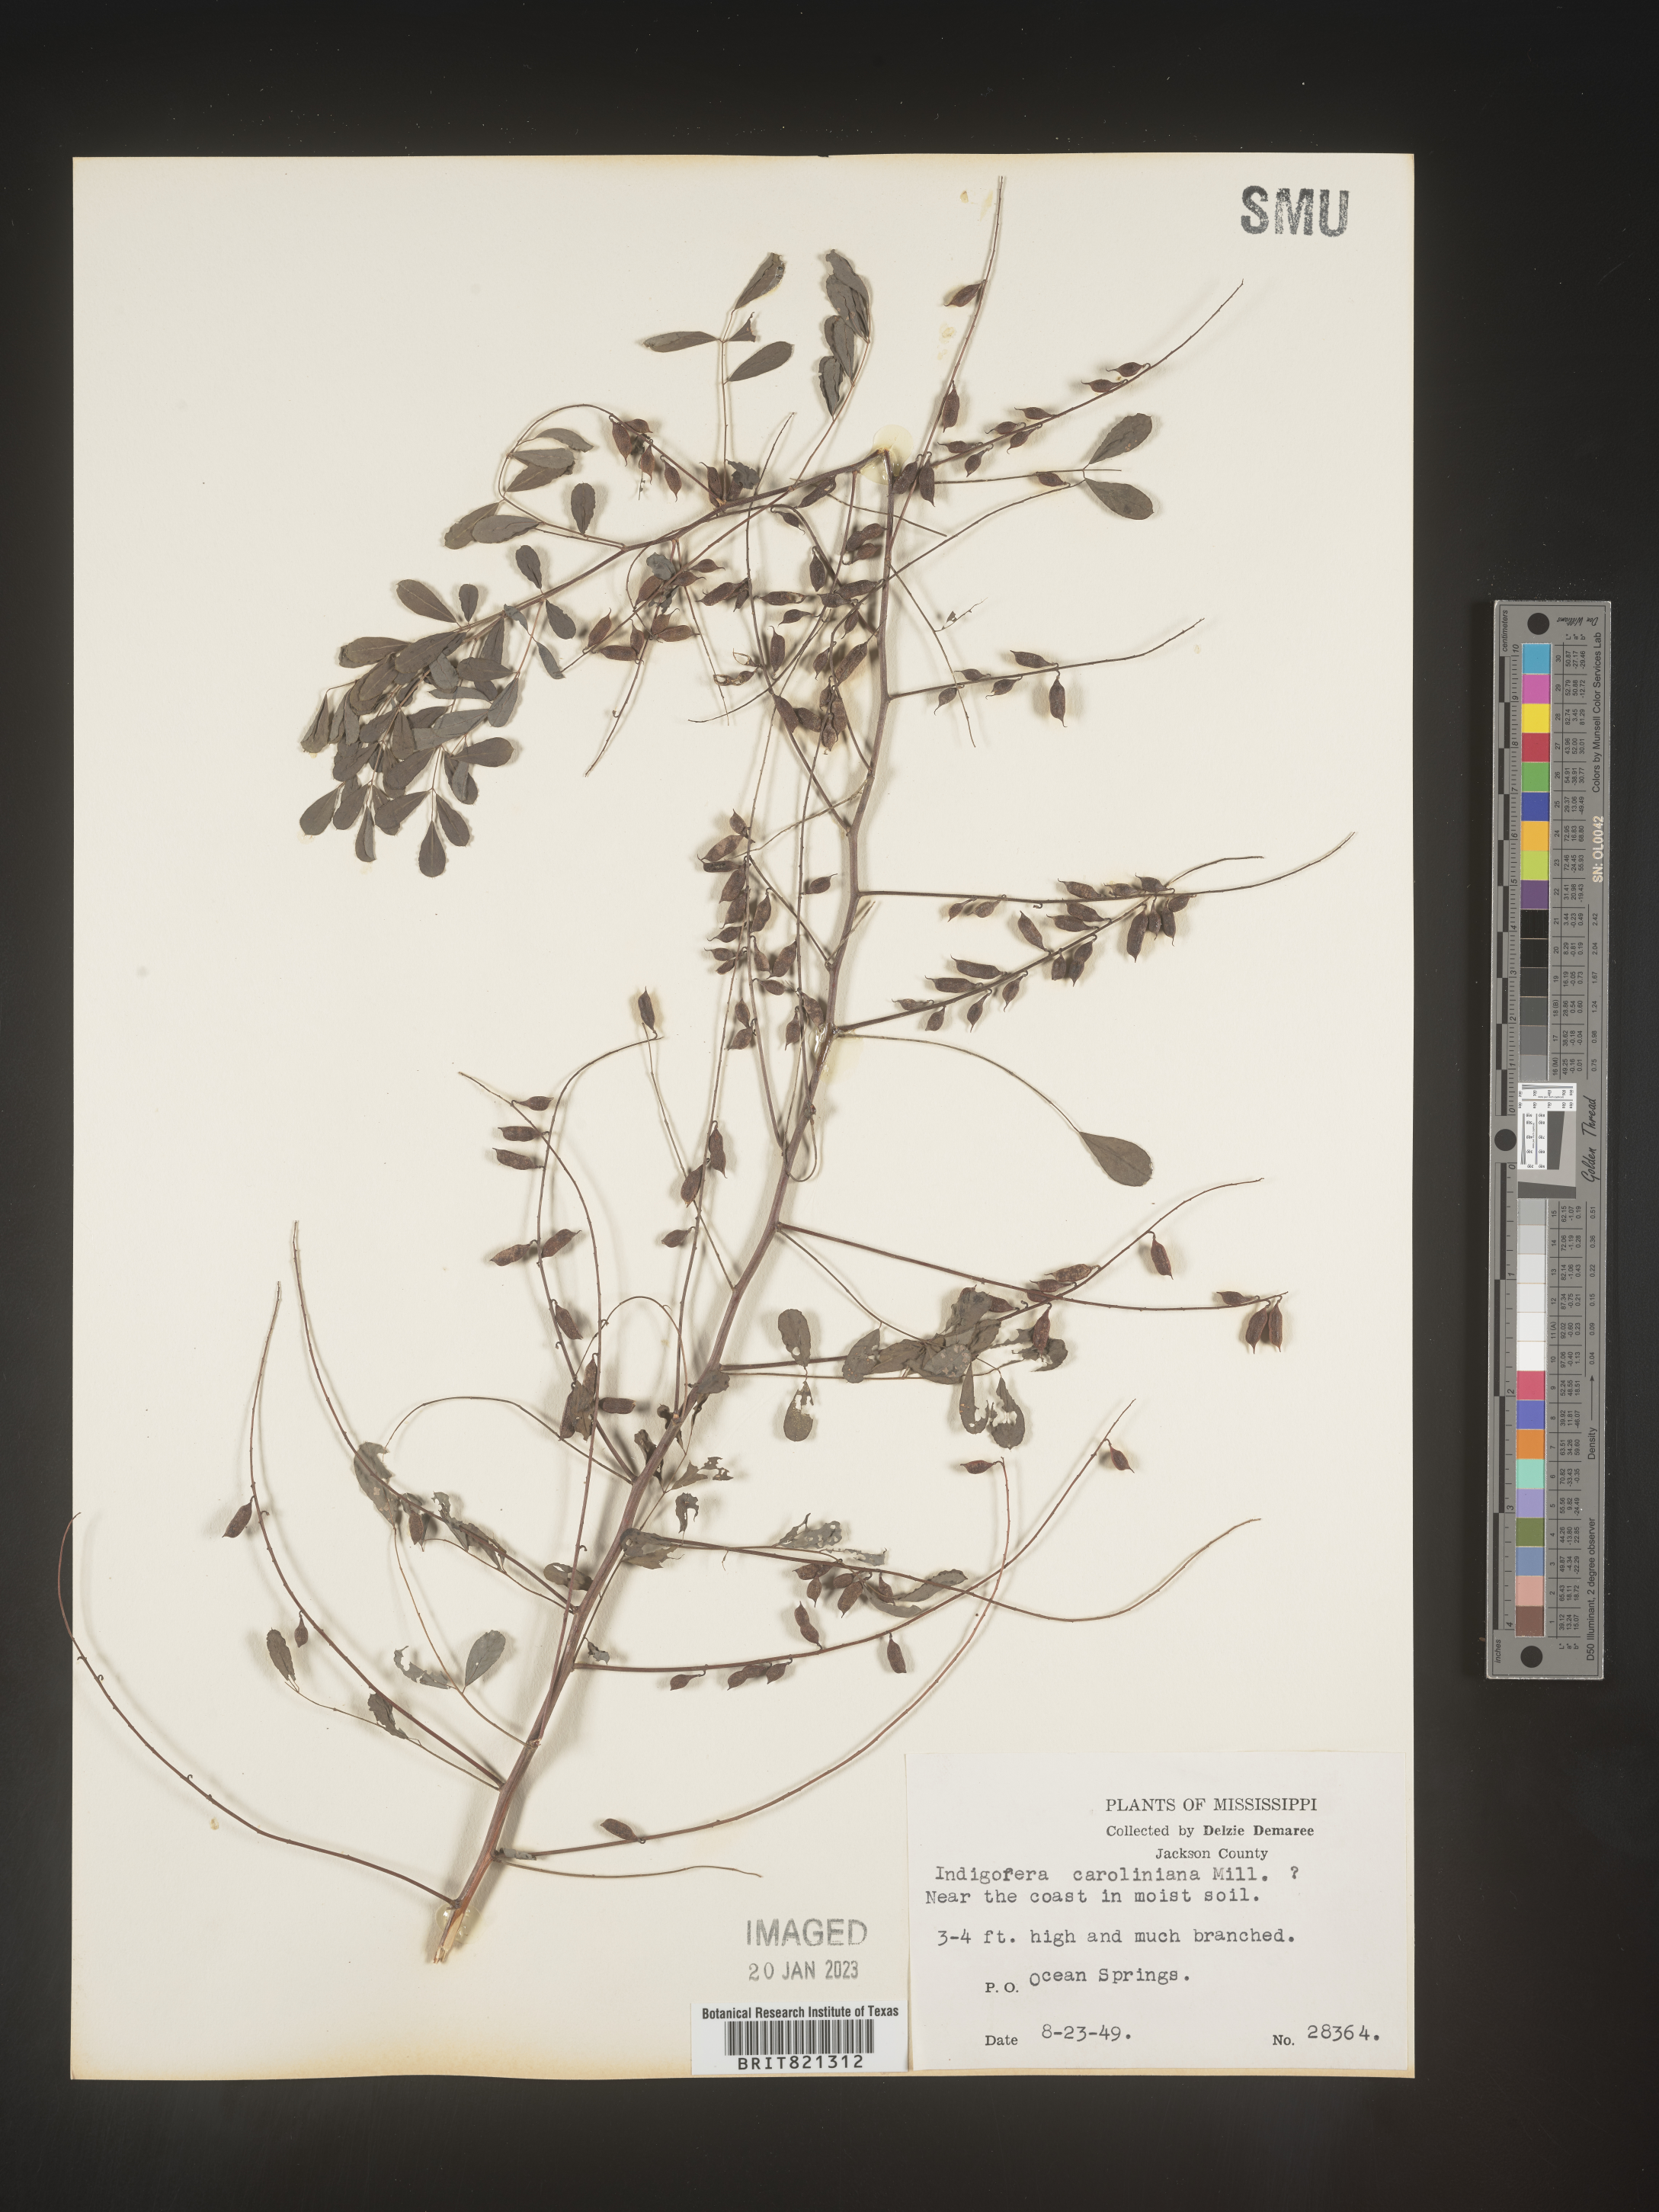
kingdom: Plantae
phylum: Tracheophyta
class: Magnoliopsida
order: Fabales
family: Fabaceae
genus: Indigofera
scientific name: Indigofera
